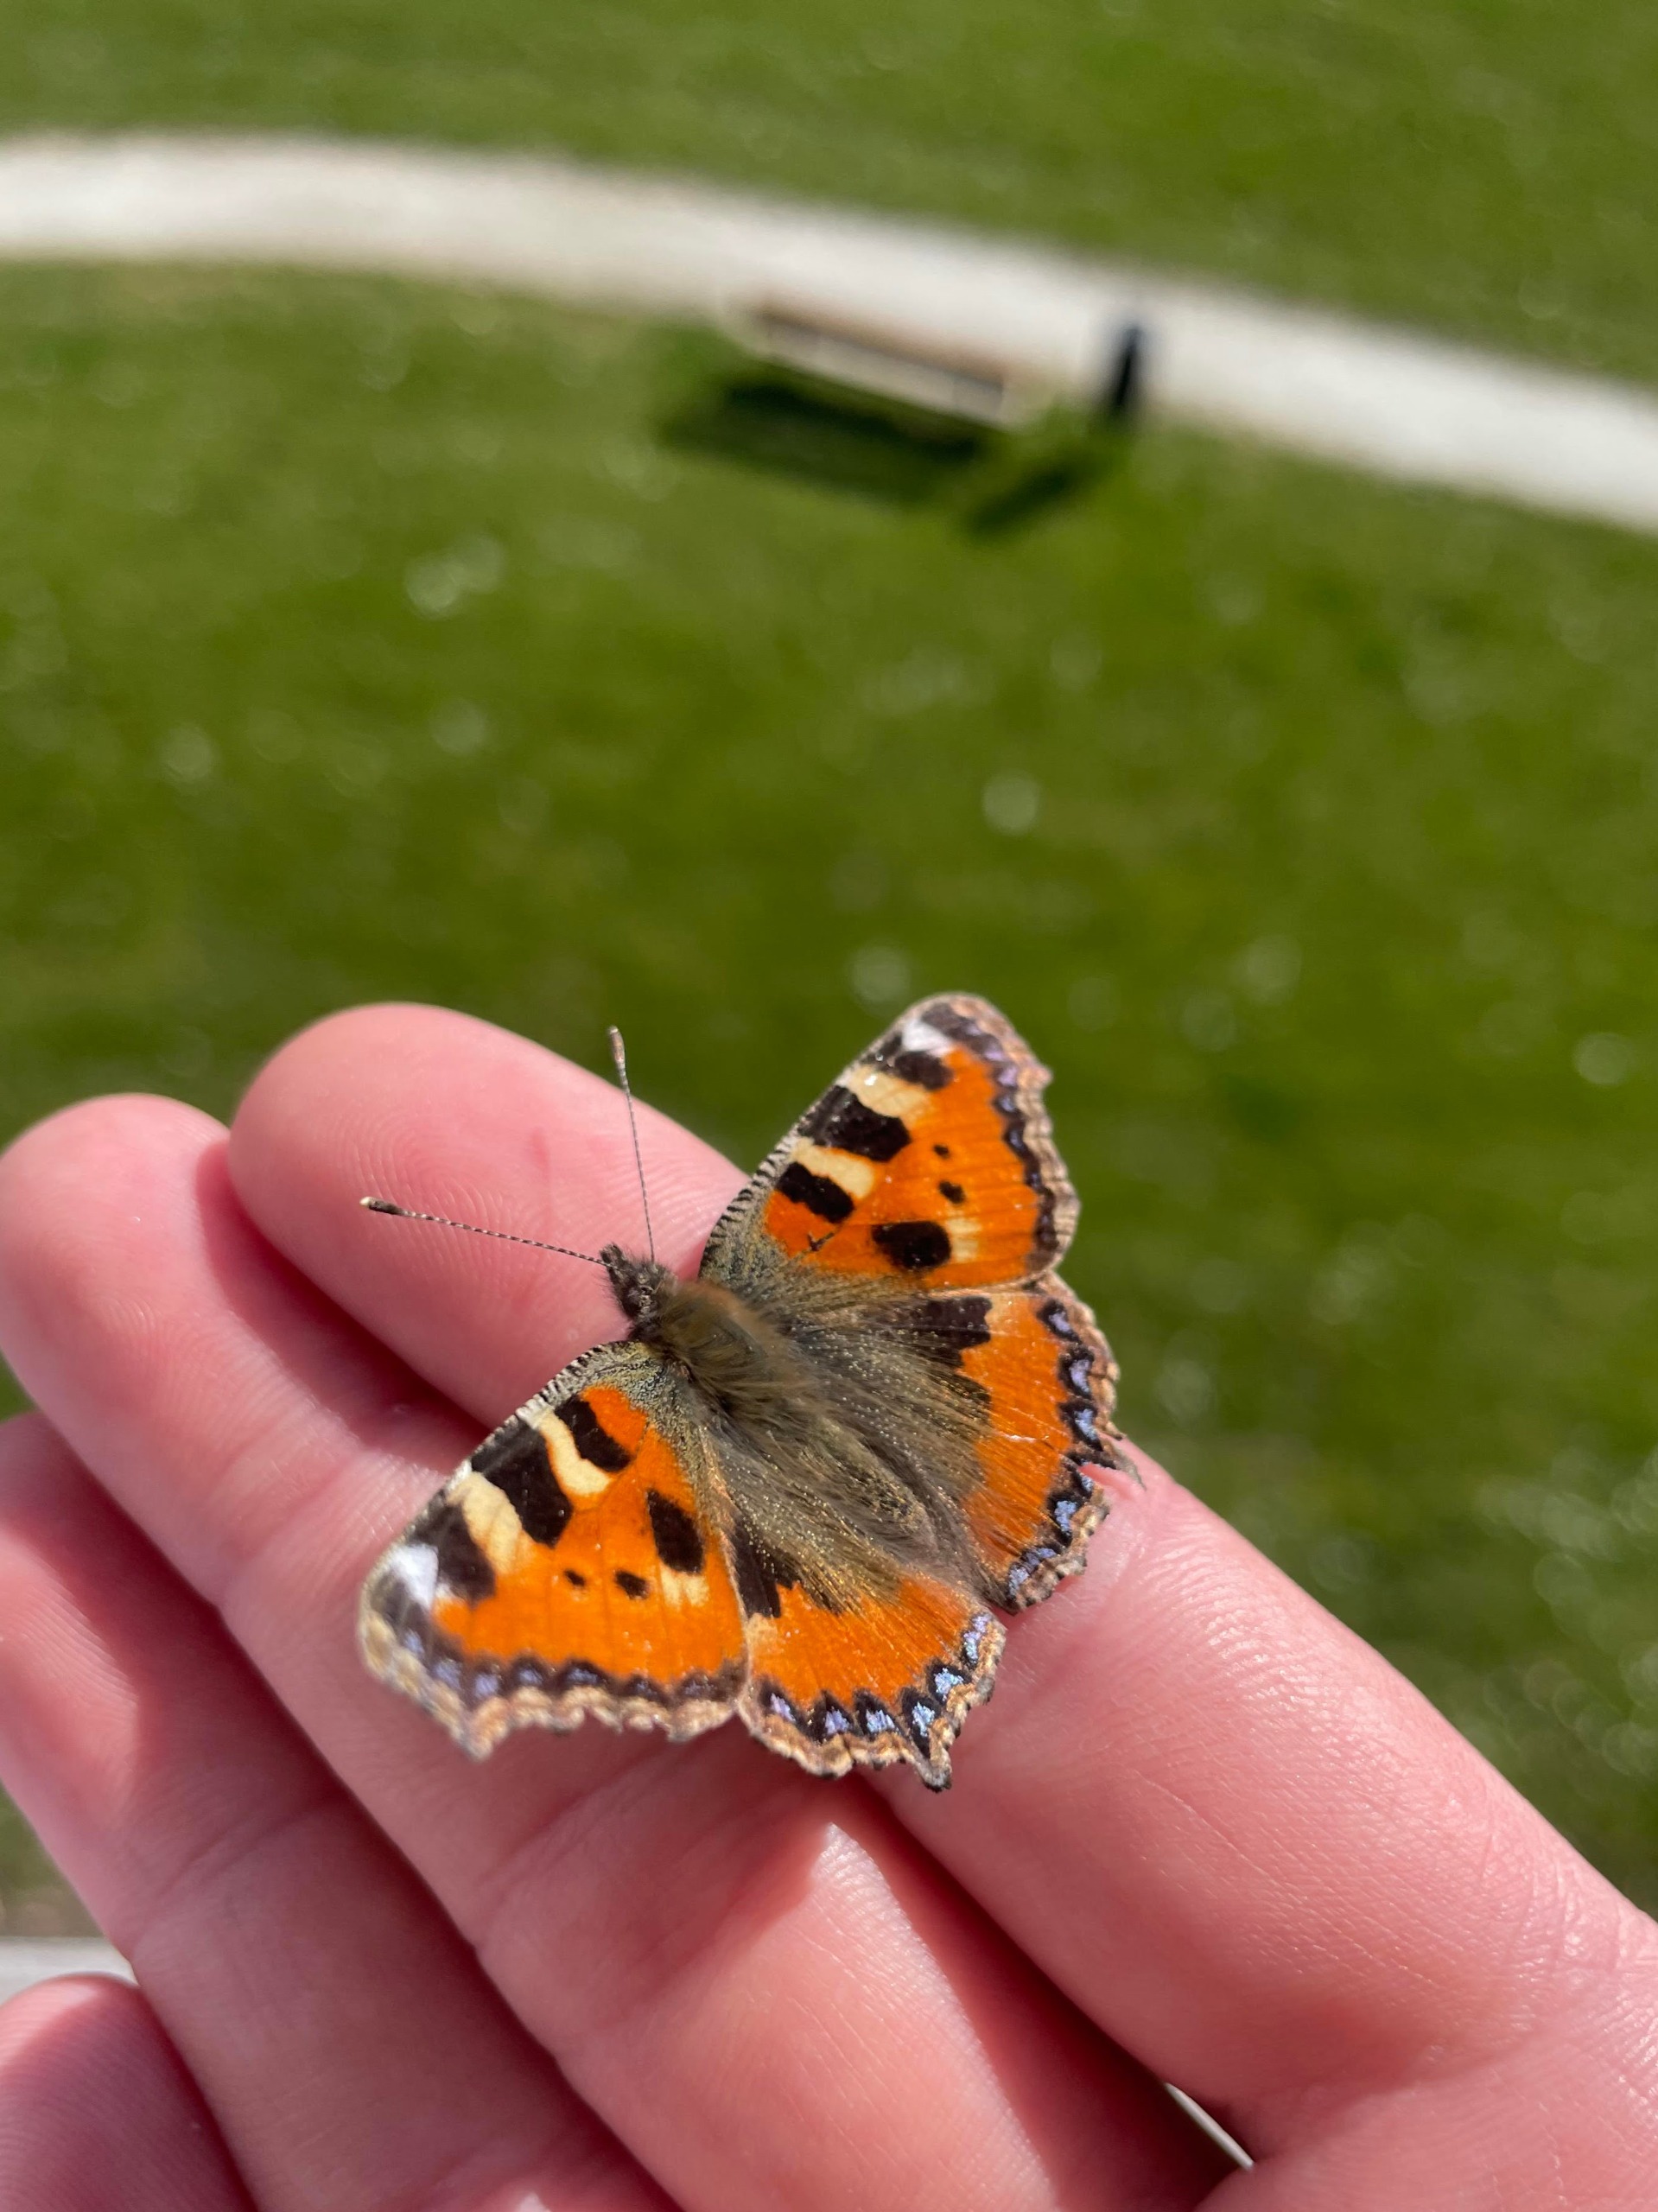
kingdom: Animalia
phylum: Arthropoda
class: Insecta
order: Lepidoptera
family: Nymphalidae
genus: Aglais
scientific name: Aglais urticae
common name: Nældens takvinge
